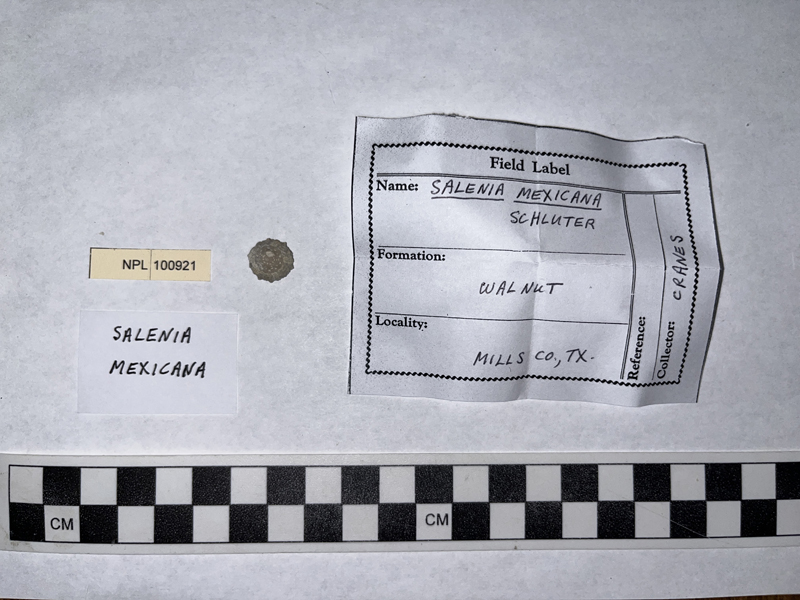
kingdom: Animalia
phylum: Echinodermata
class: Echinoidea
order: Salenioida
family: Saleniidae
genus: Salenia
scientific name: Salenia mexicana
